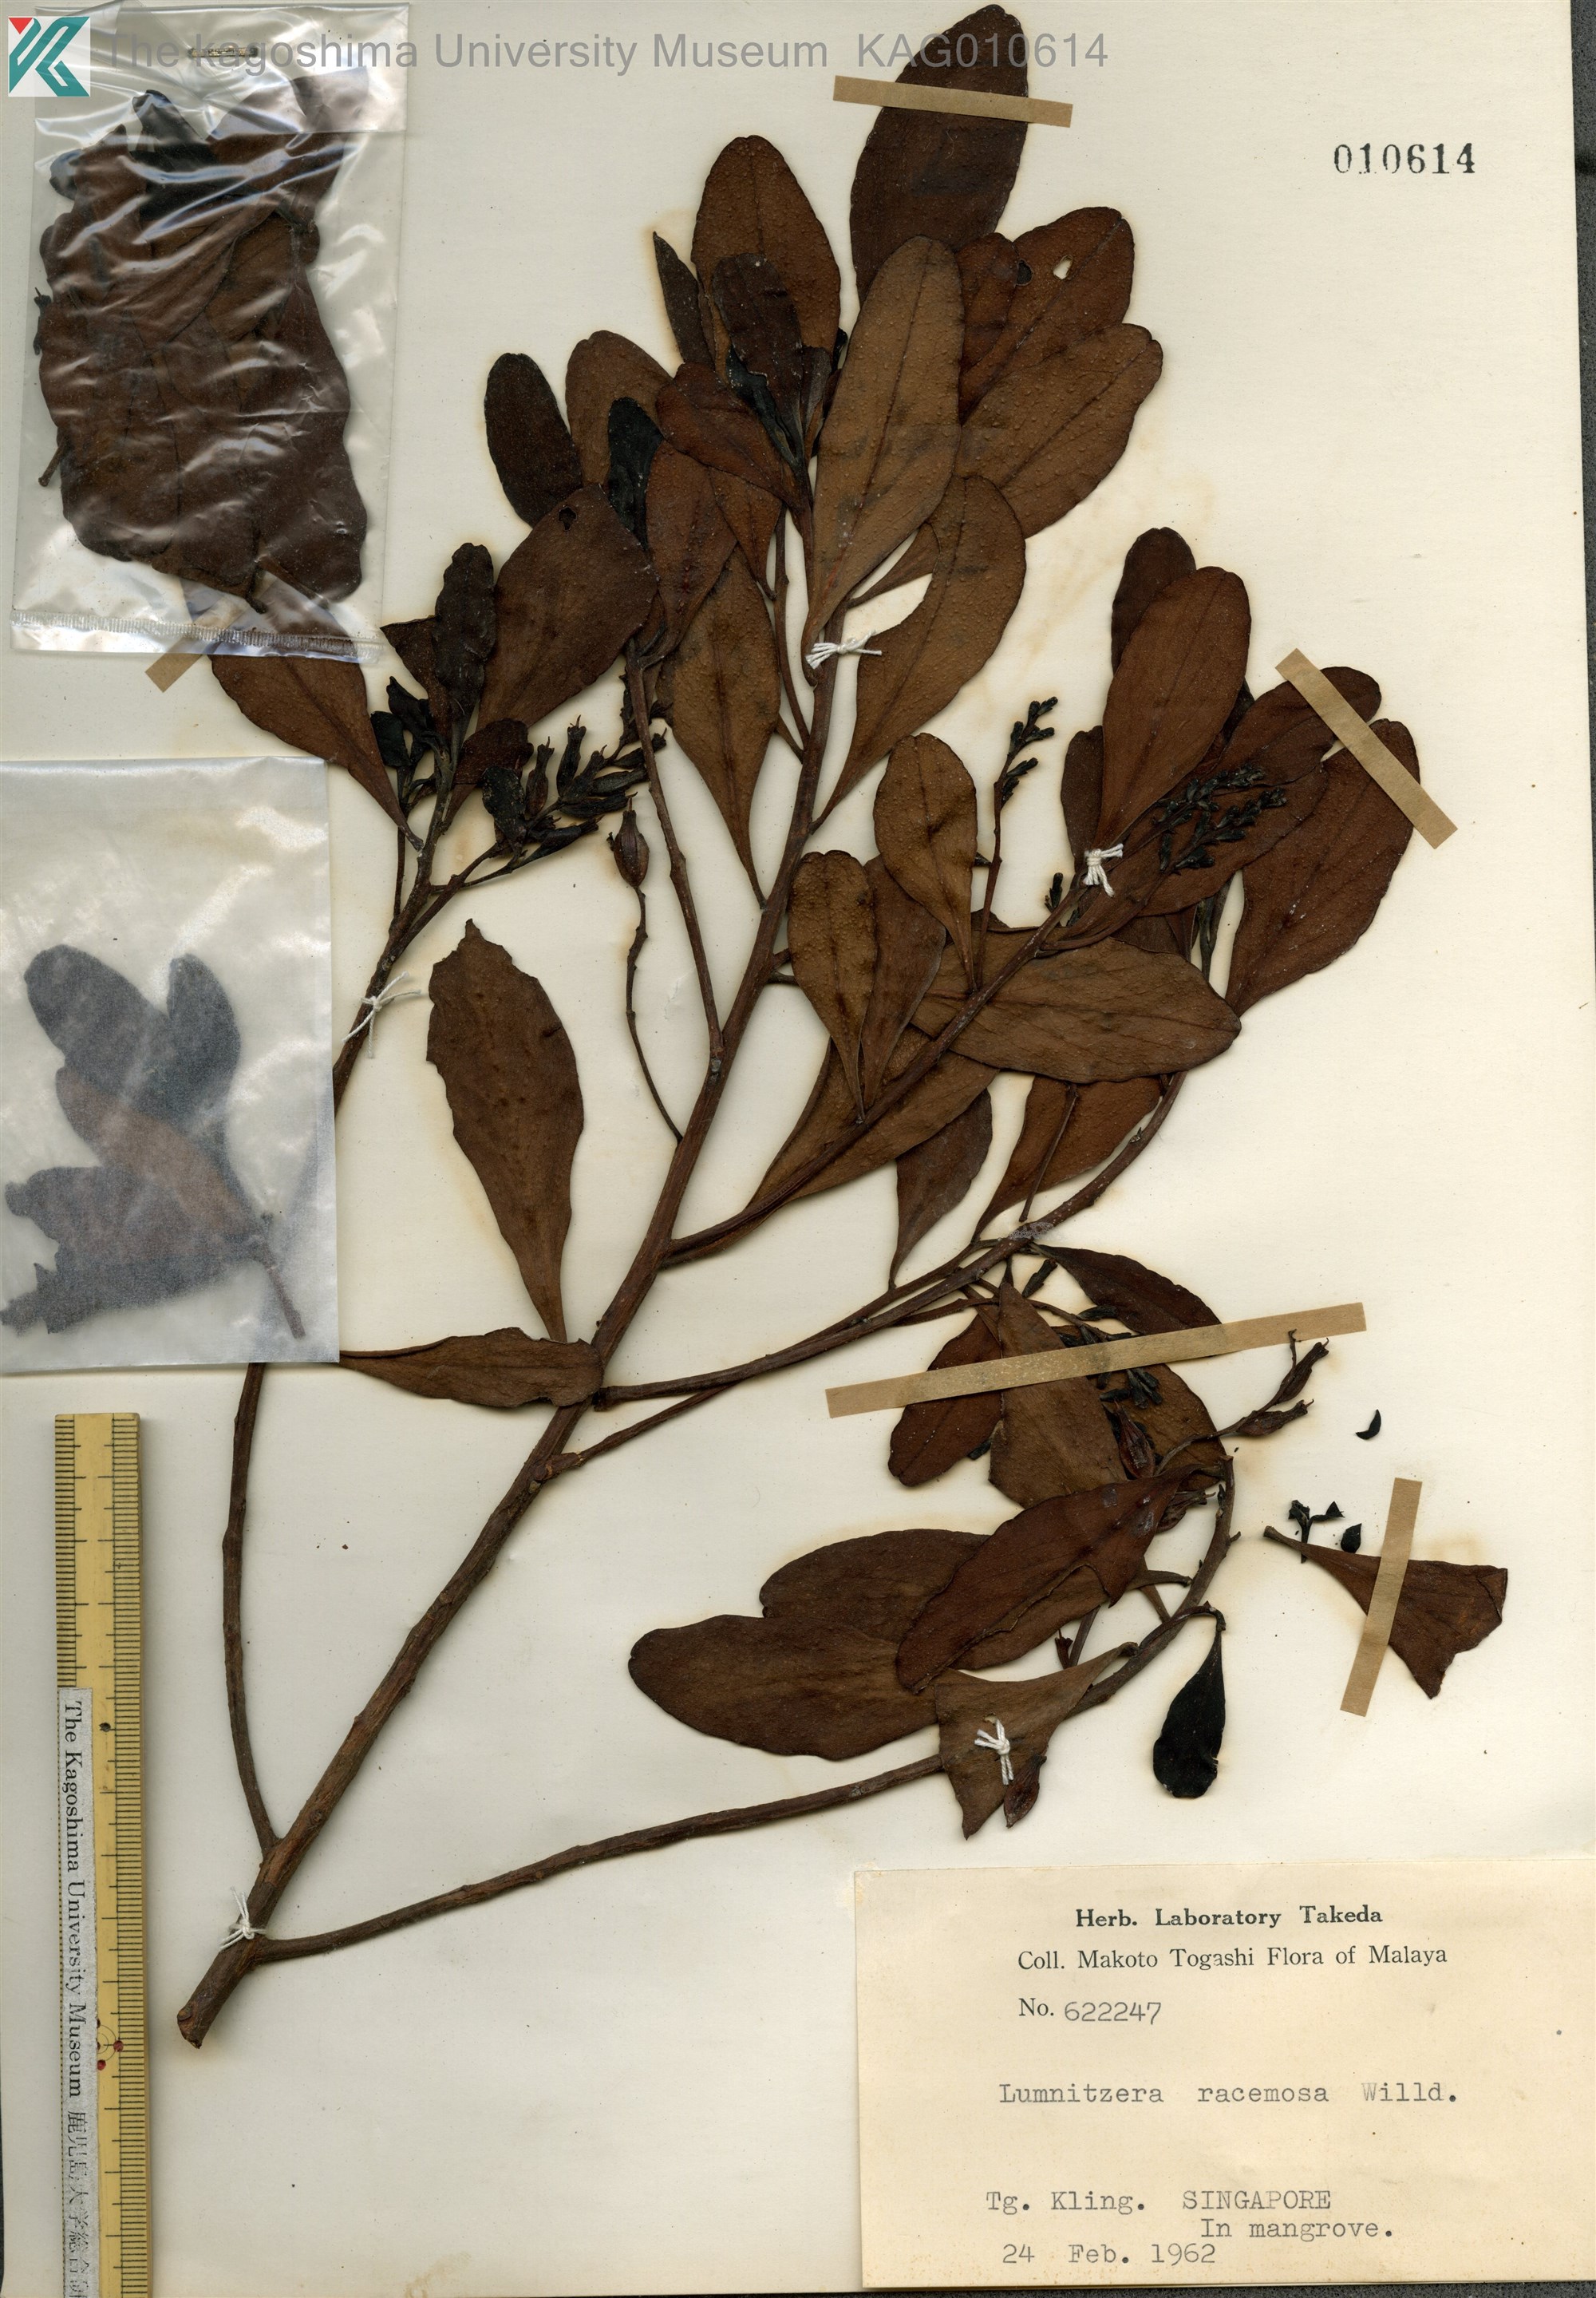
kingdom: Plantae
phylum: Tracheophyta
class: Magnoliopsida
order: Myrtales
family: Combretaceae
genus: Lumnitzera
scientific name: Lumnitzera racemosa
